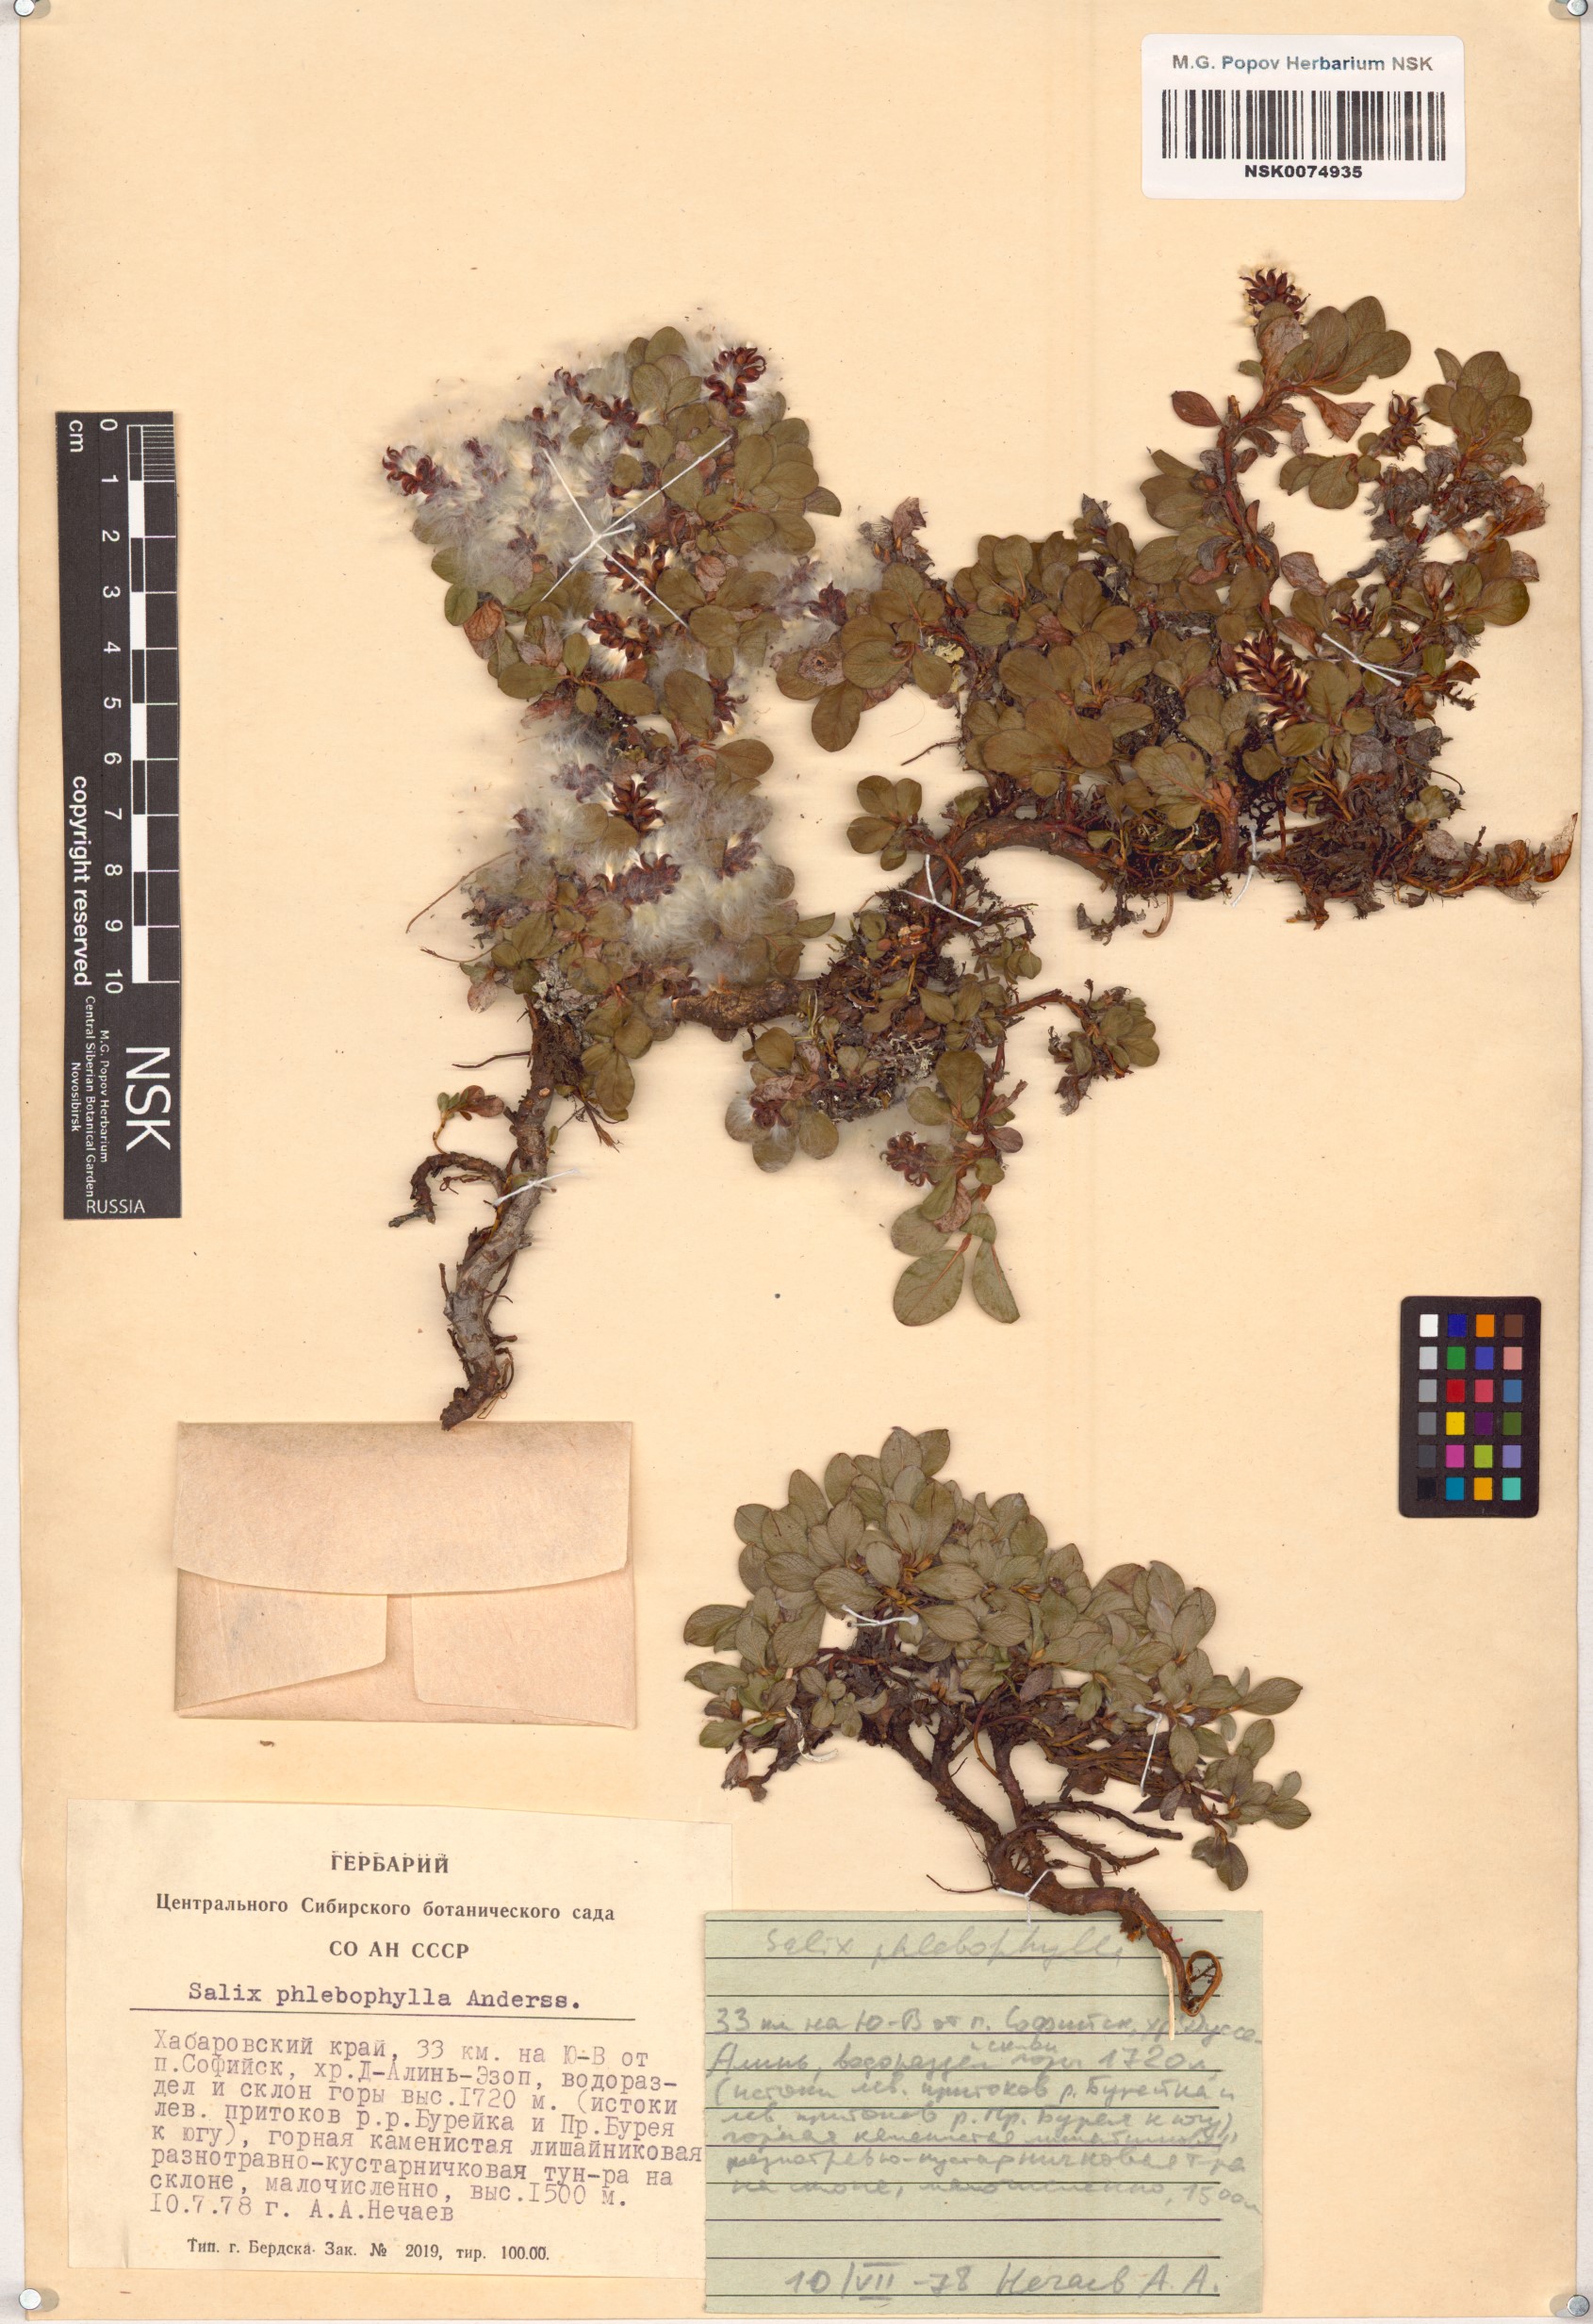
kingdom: Plantae
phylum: Tracheophyta
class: Magnoliopsida
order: Malpighiales
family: Salicaceae
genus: Salix
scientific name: Salix phlebophylla
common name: Skeleton-leaved willow
